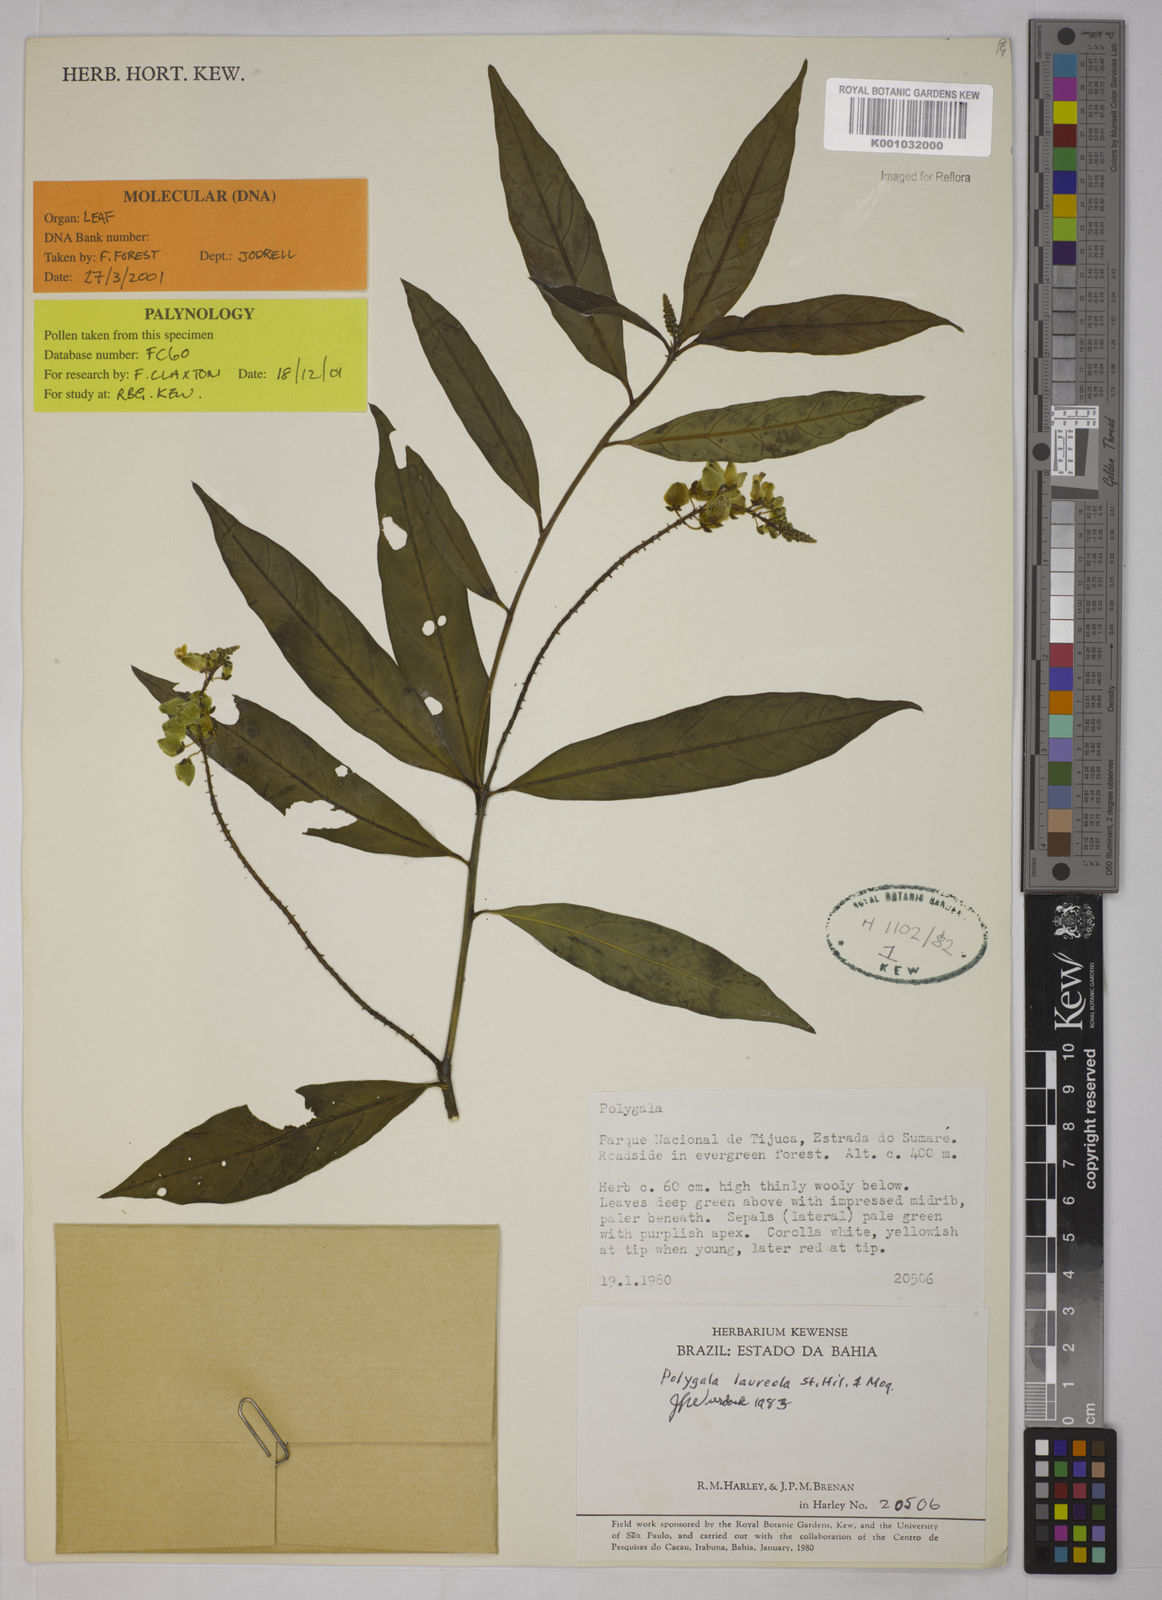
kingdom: Plantae
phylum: Tracheophyta
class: Magnoliopsida
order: Fabales
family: Polygalaceae
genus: Caamembeca
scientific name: Caamembeca salicifolia
